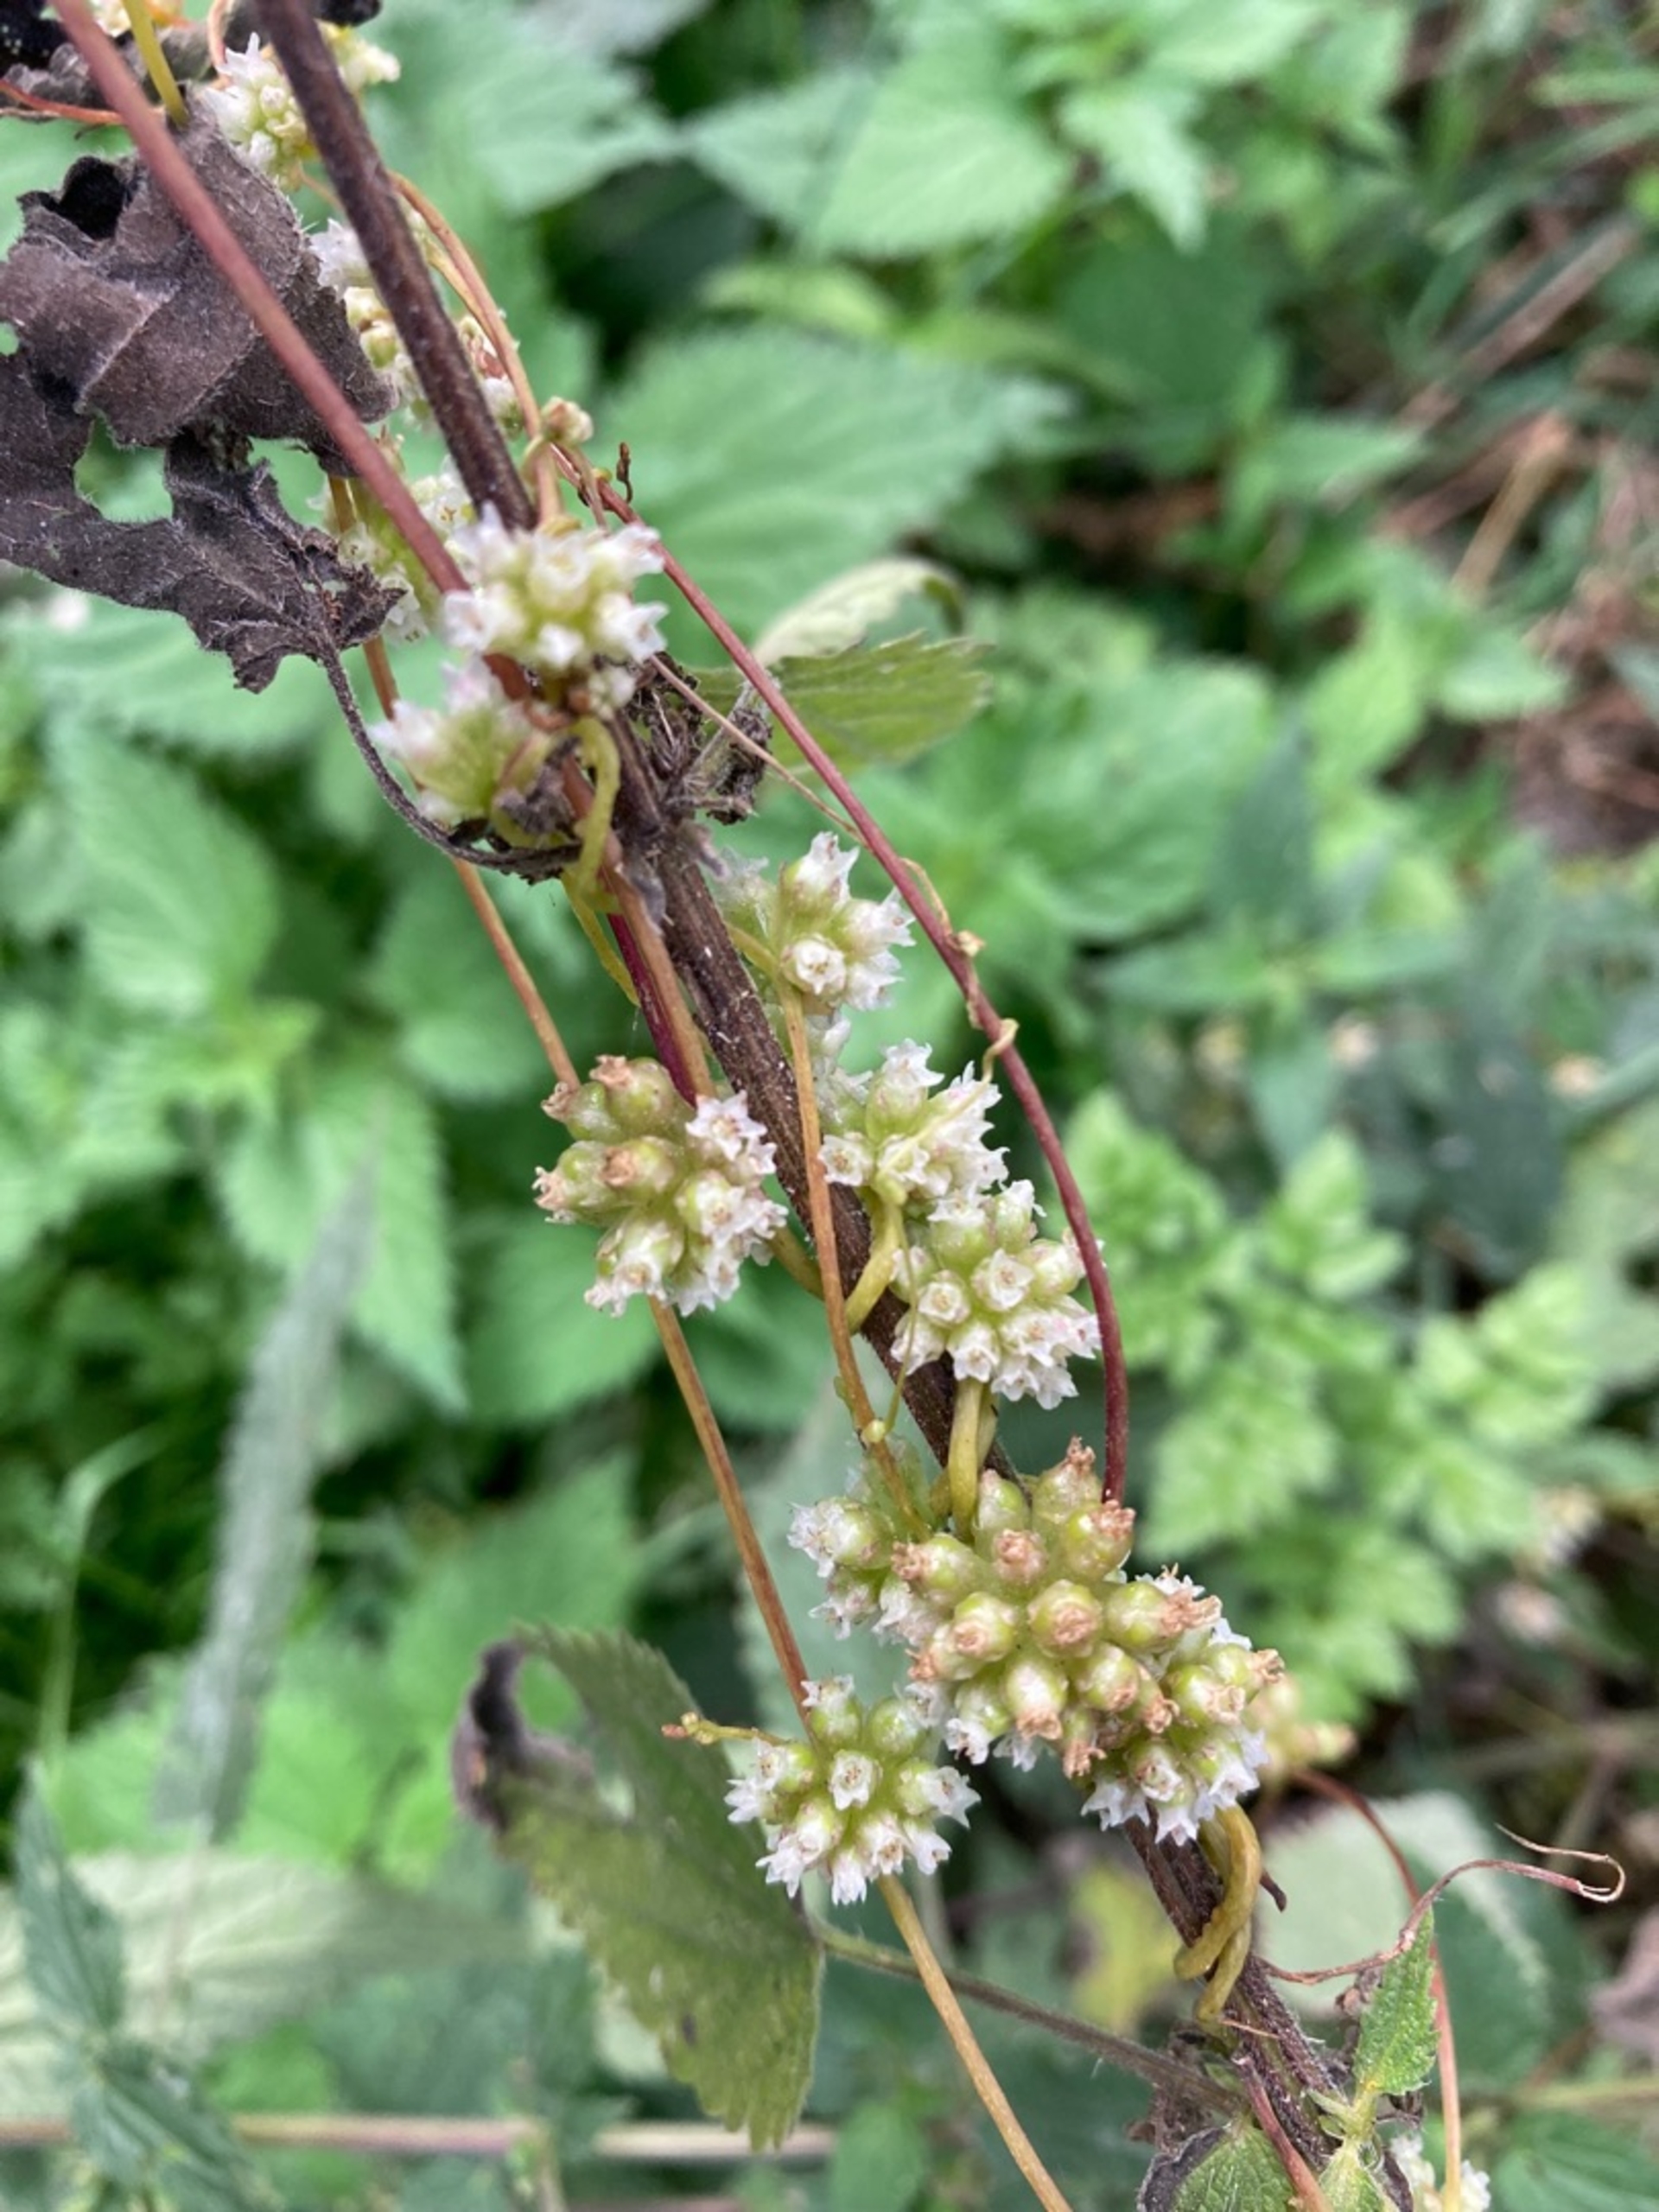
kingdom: Plantae
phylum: Tracheophyta
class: Magnoliopsida
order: Solanales
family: Convolvulaceae
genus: Cuscuta
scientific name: Cuscuta europaea
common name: Nælde-silke
